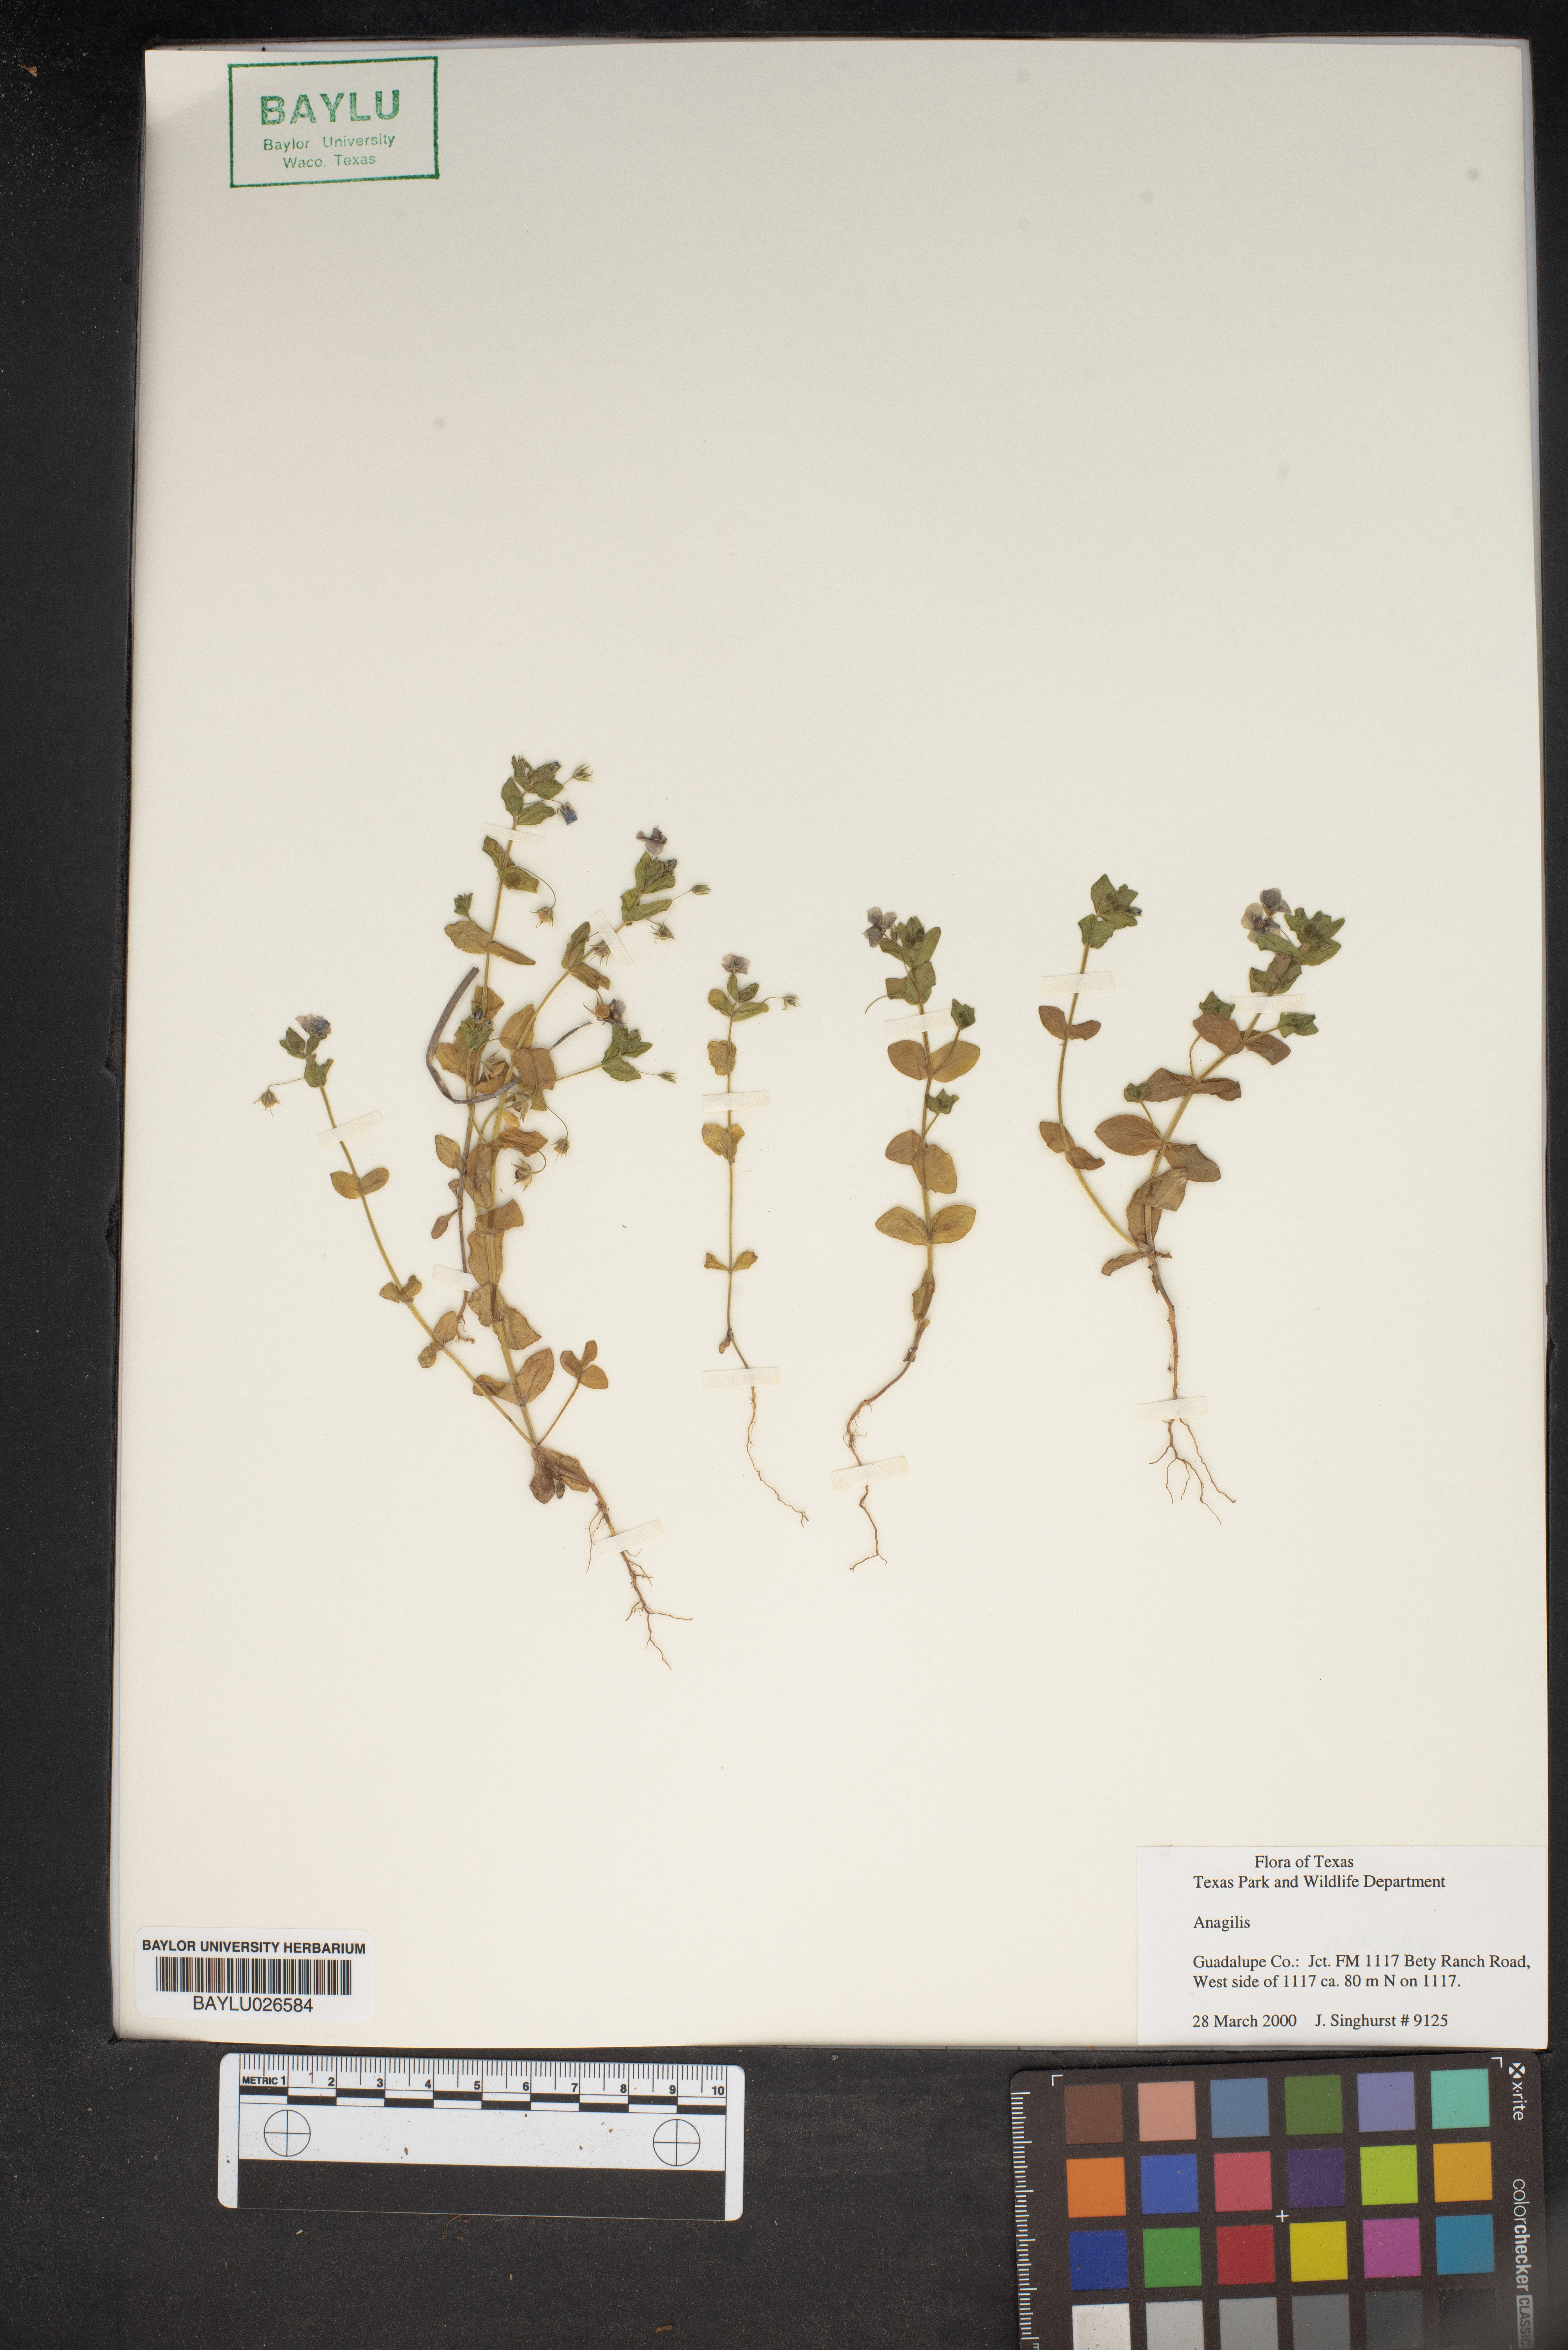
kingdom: Plantae
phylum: Tracheophyta
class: Magnoliopsida
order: Ericales
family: Primulaceae
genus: Lysimachia
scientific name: Lysimachia Anagallis spec
